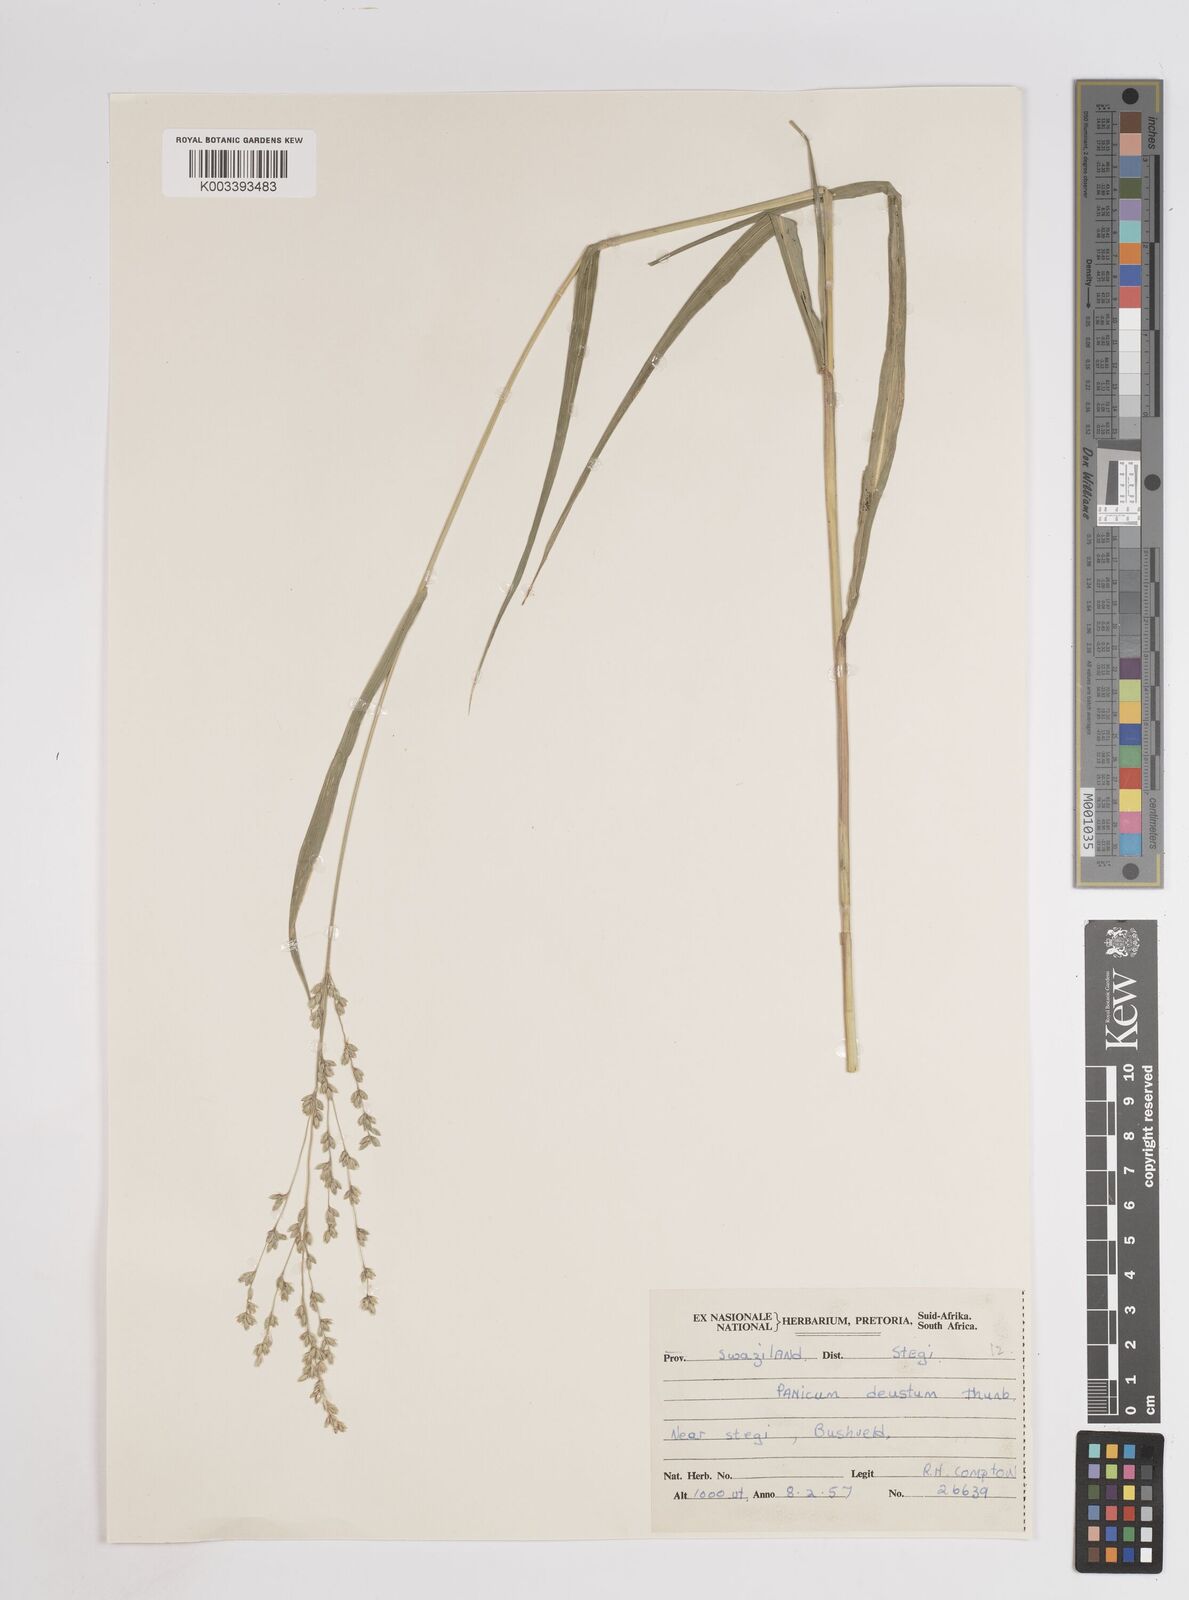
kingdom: Plantae
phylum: Tracheophyta
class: Liliopsida
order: Poales
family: Poaceae
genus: Panicum
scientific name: Panicum deustum
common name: Reed panicum
